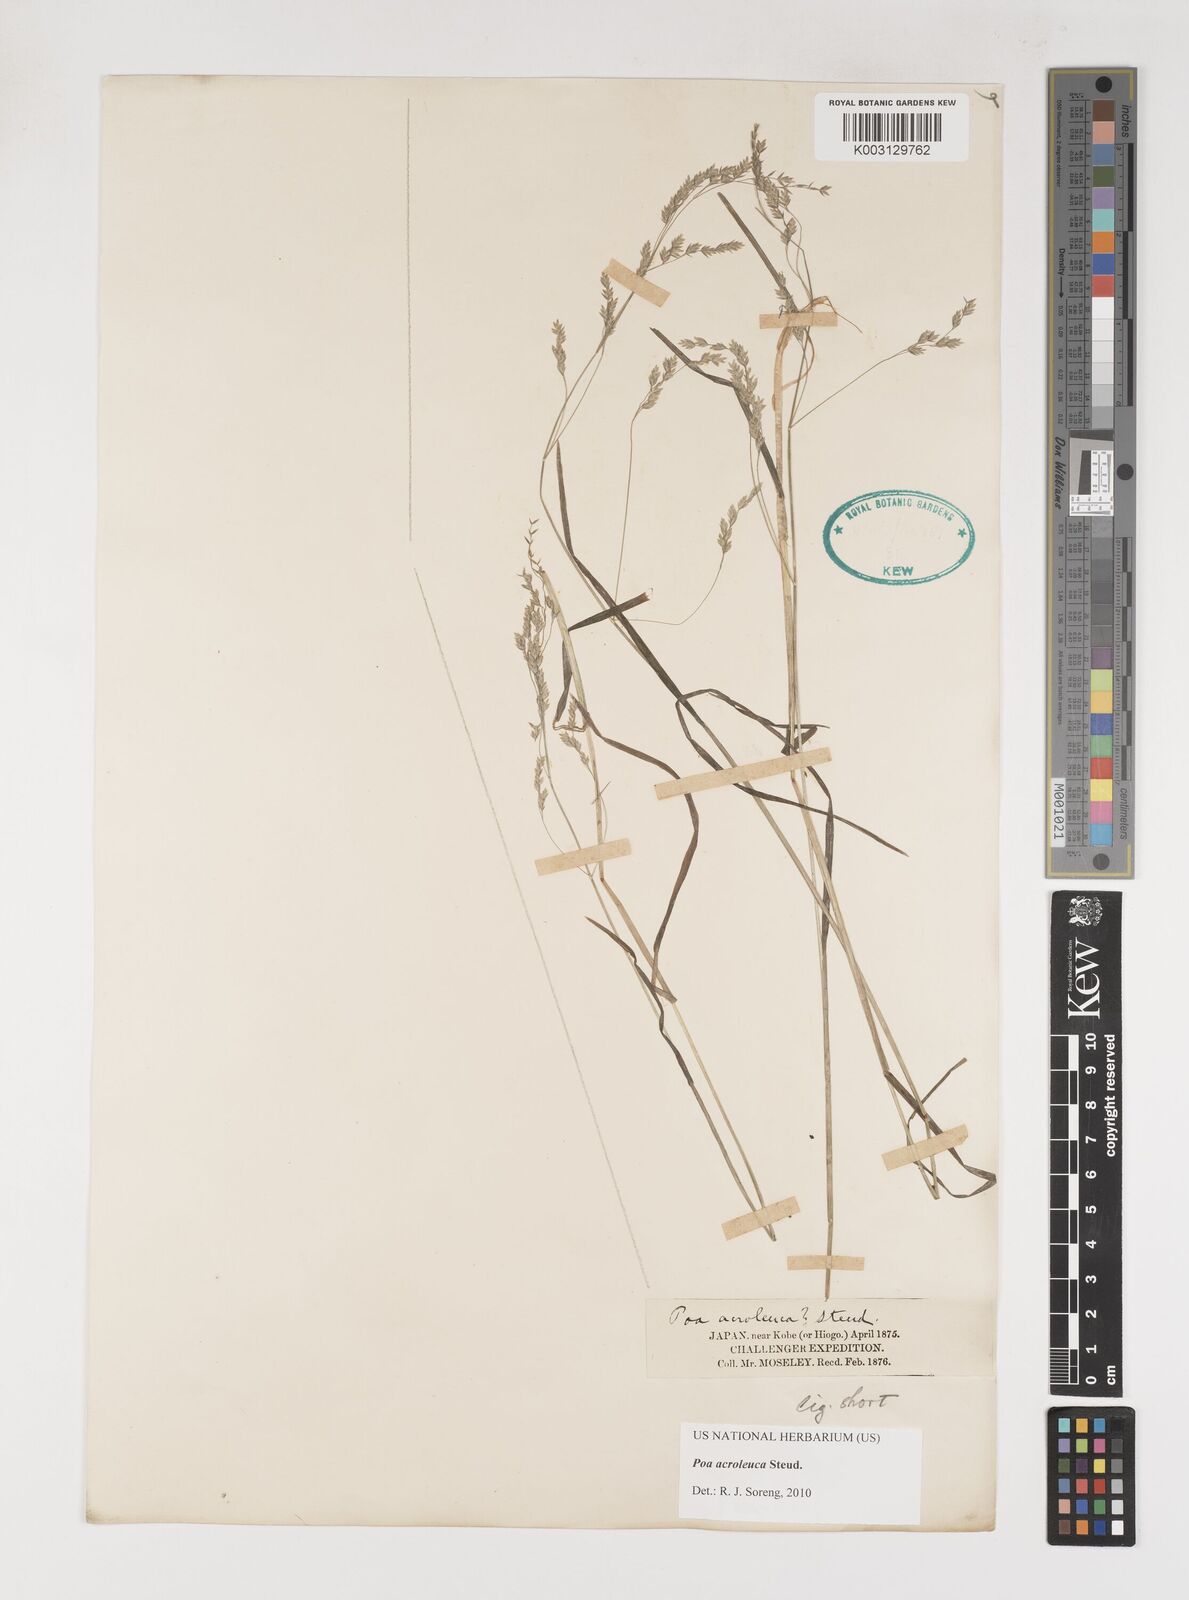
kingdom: Plantae
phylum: Tracheophyta
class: Liliopsida
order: Poales
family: Poaceae
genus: Poa
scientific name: Poa acroleuca
